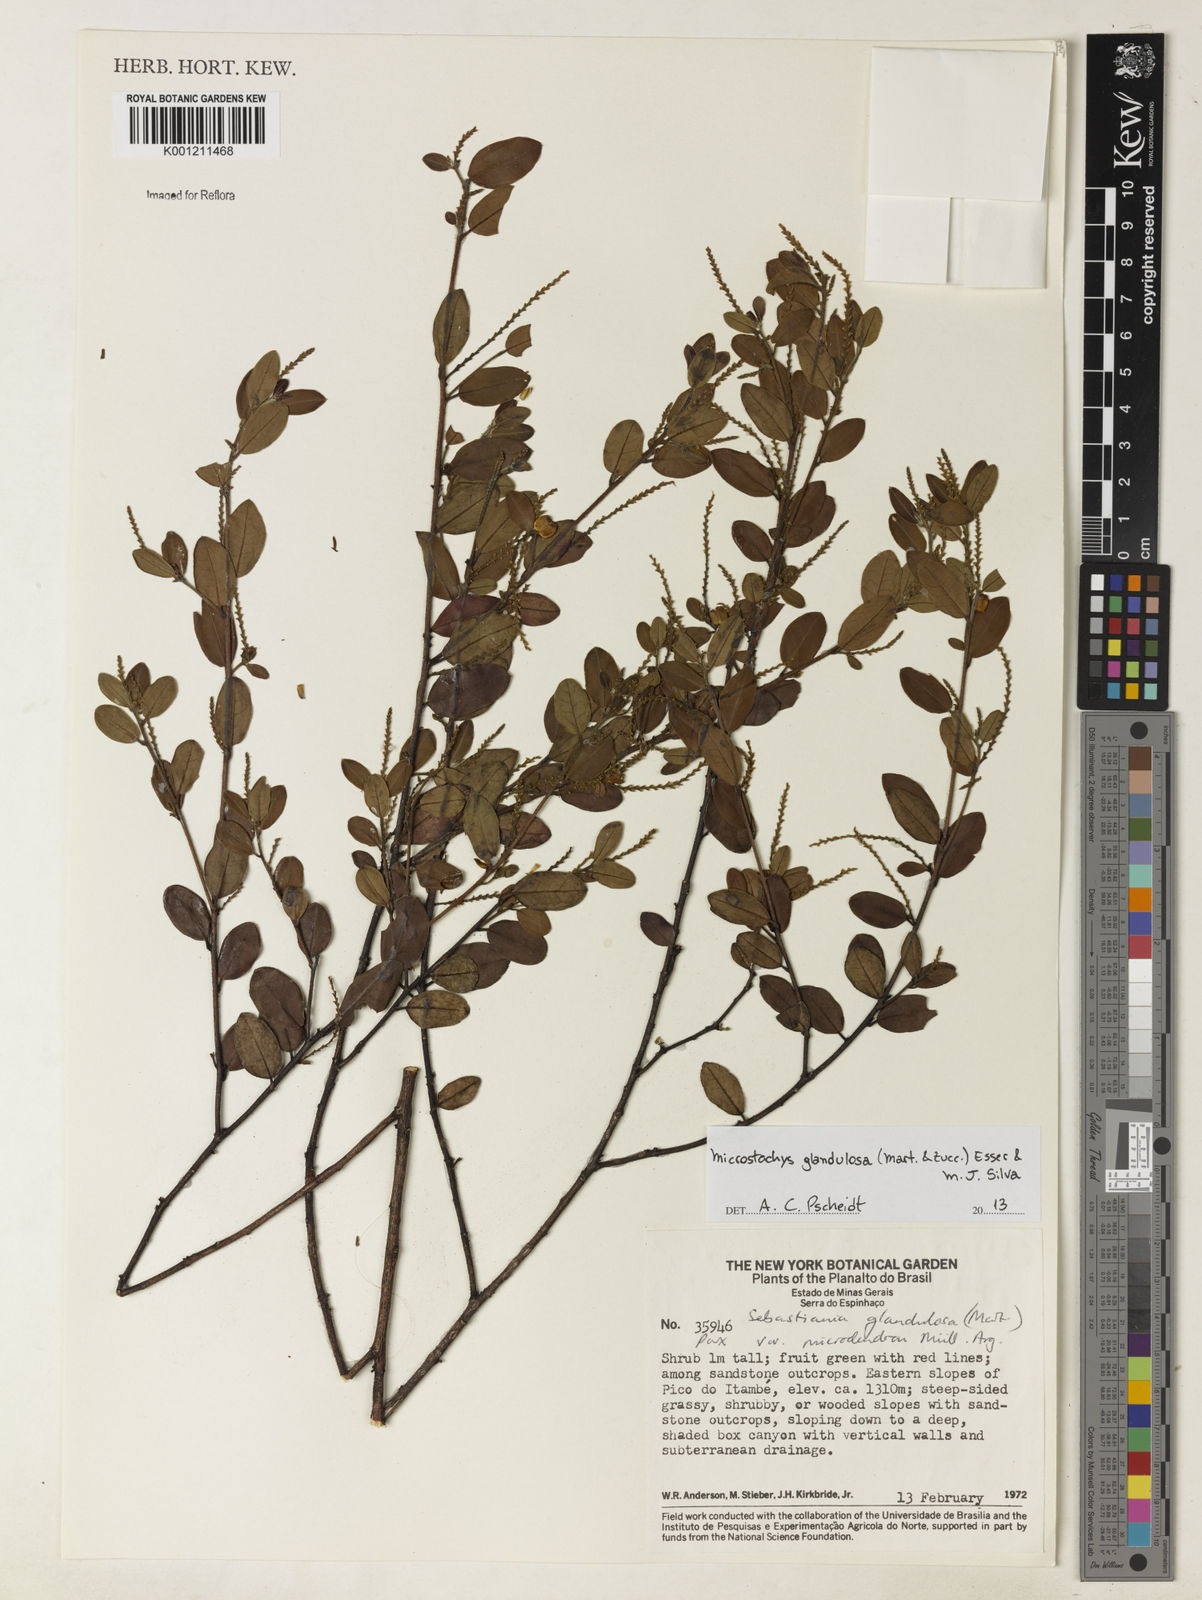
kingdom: Plantae
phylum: Tracheophyta
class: Magnoliopsida
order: Malpighiales
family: Euphorbiaceae
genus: Microstachys
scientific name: Microstachys glandulosa
